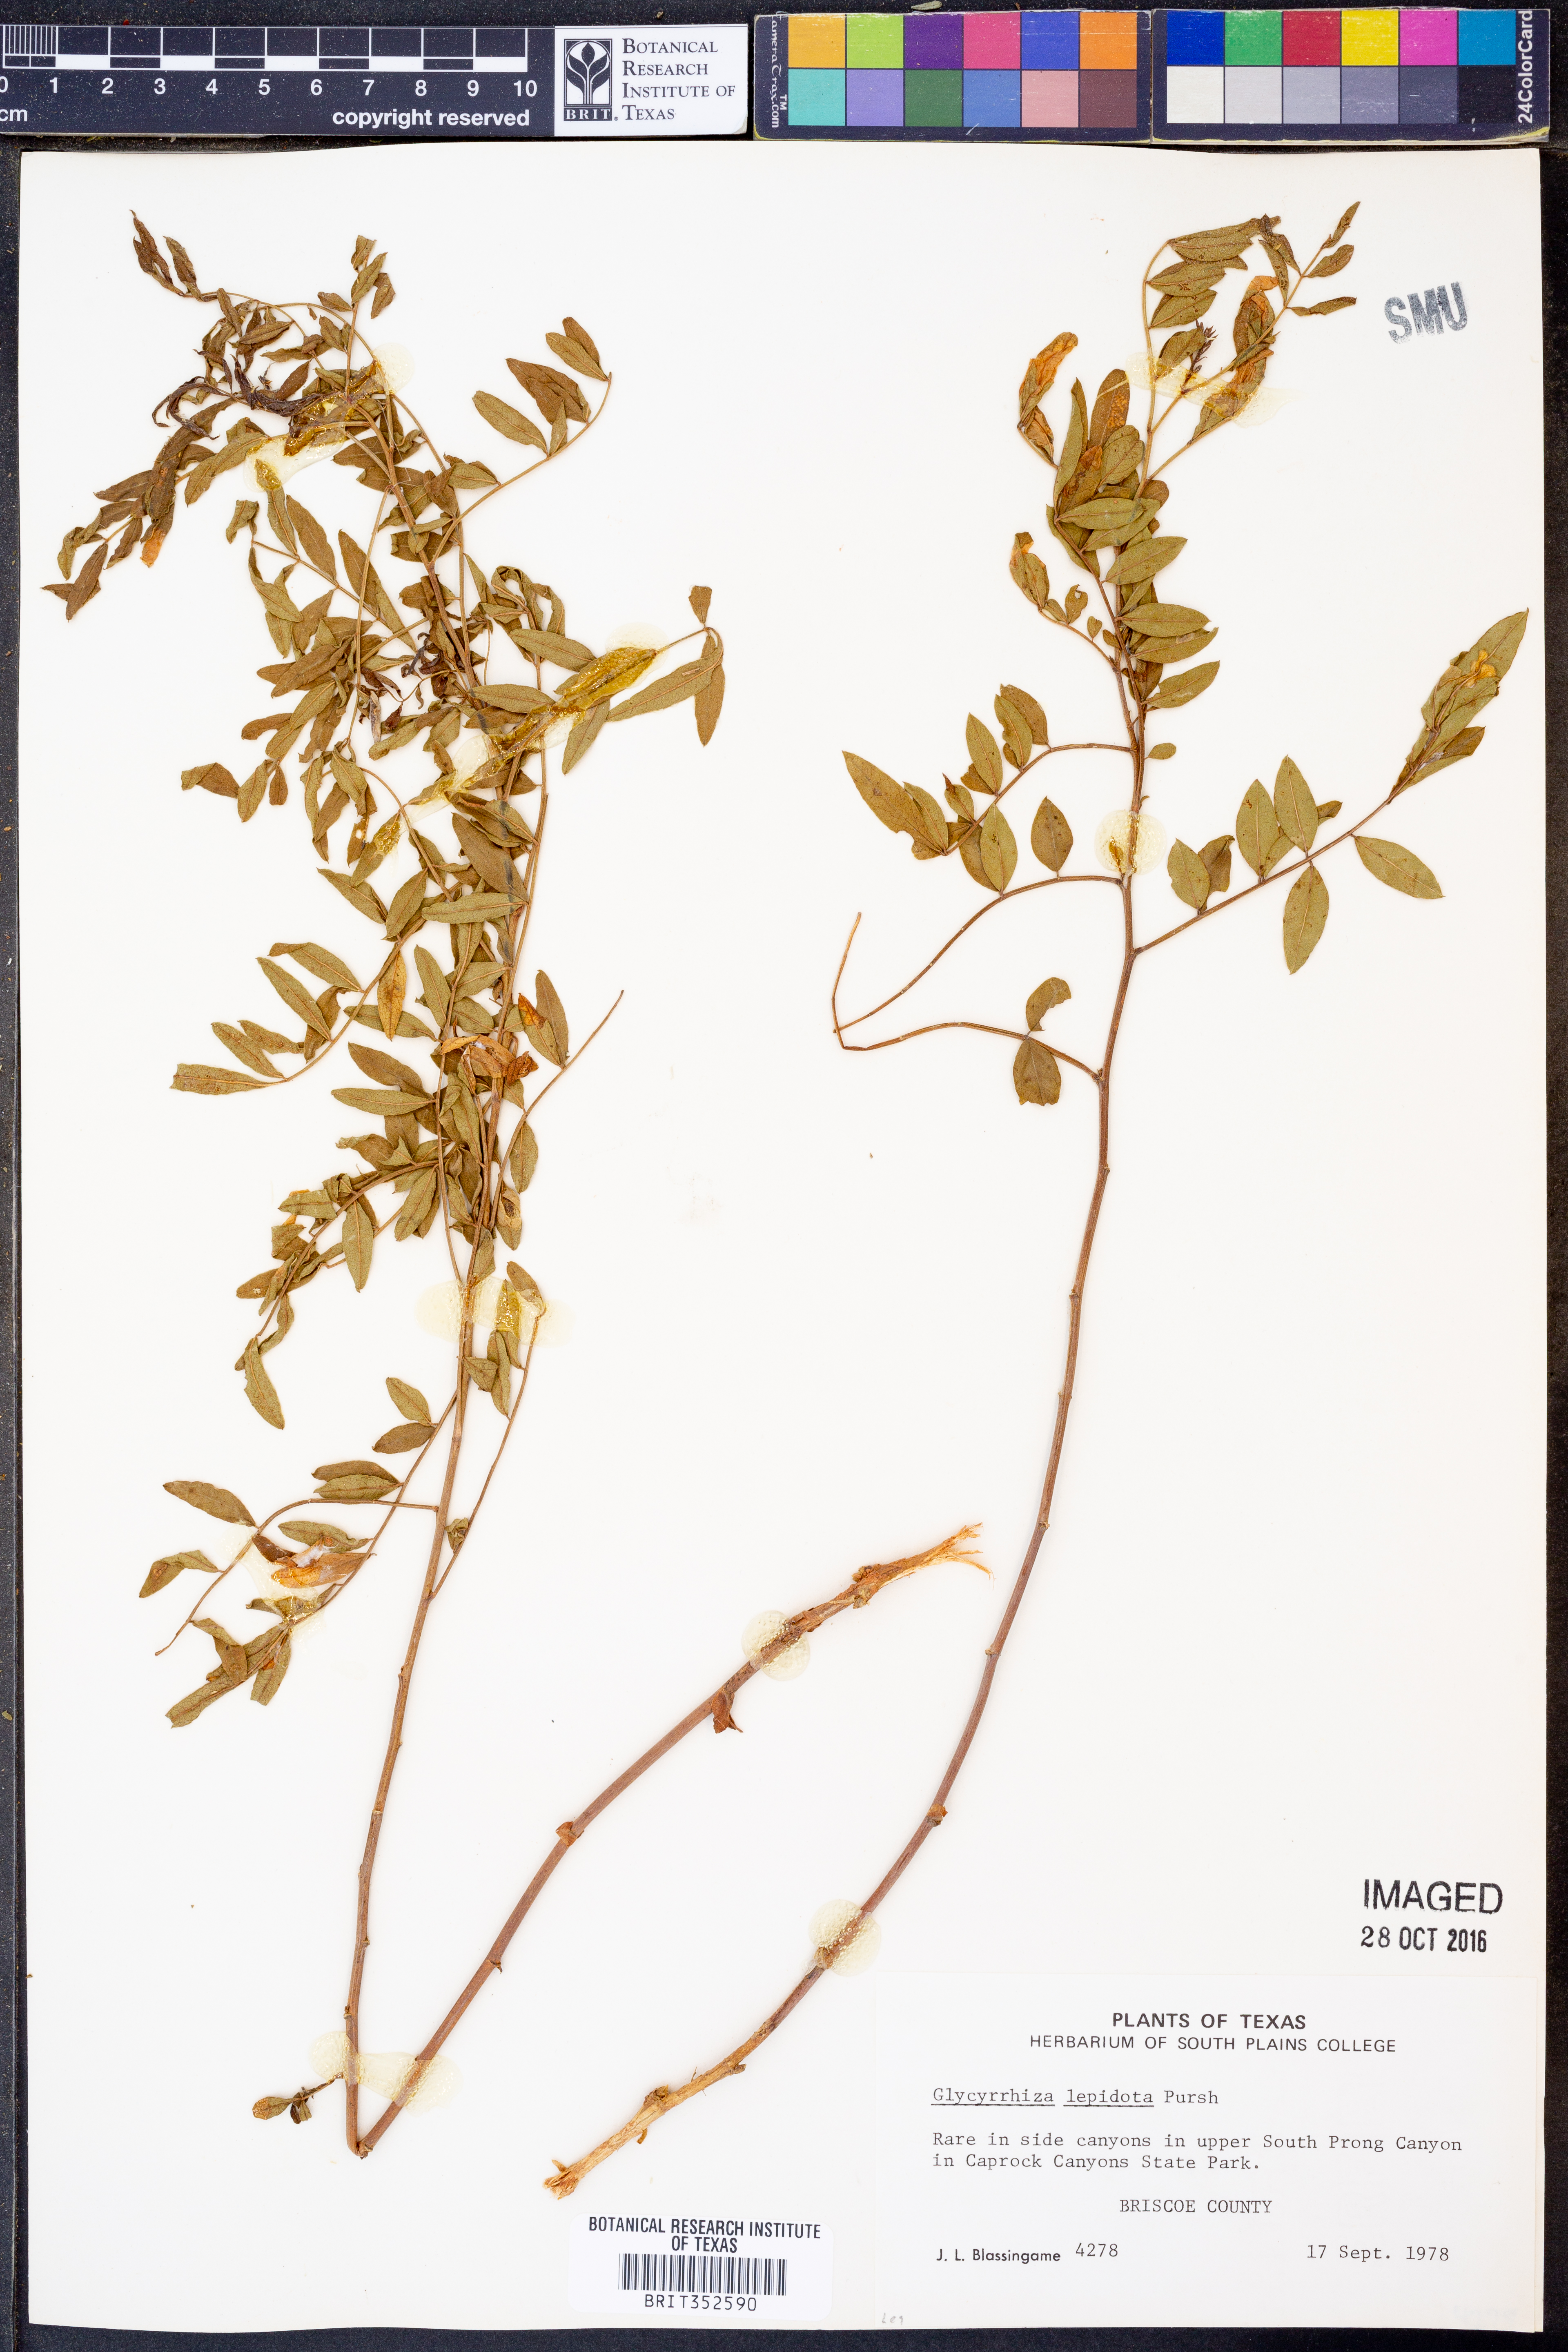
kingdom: Plantae
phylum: Tracheophyta
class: Magnoliopsida
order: Fabales
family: Fabaceae
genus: Glycyrrhiza
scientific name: Glycyrrhiza lepidota
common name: American liquorice
